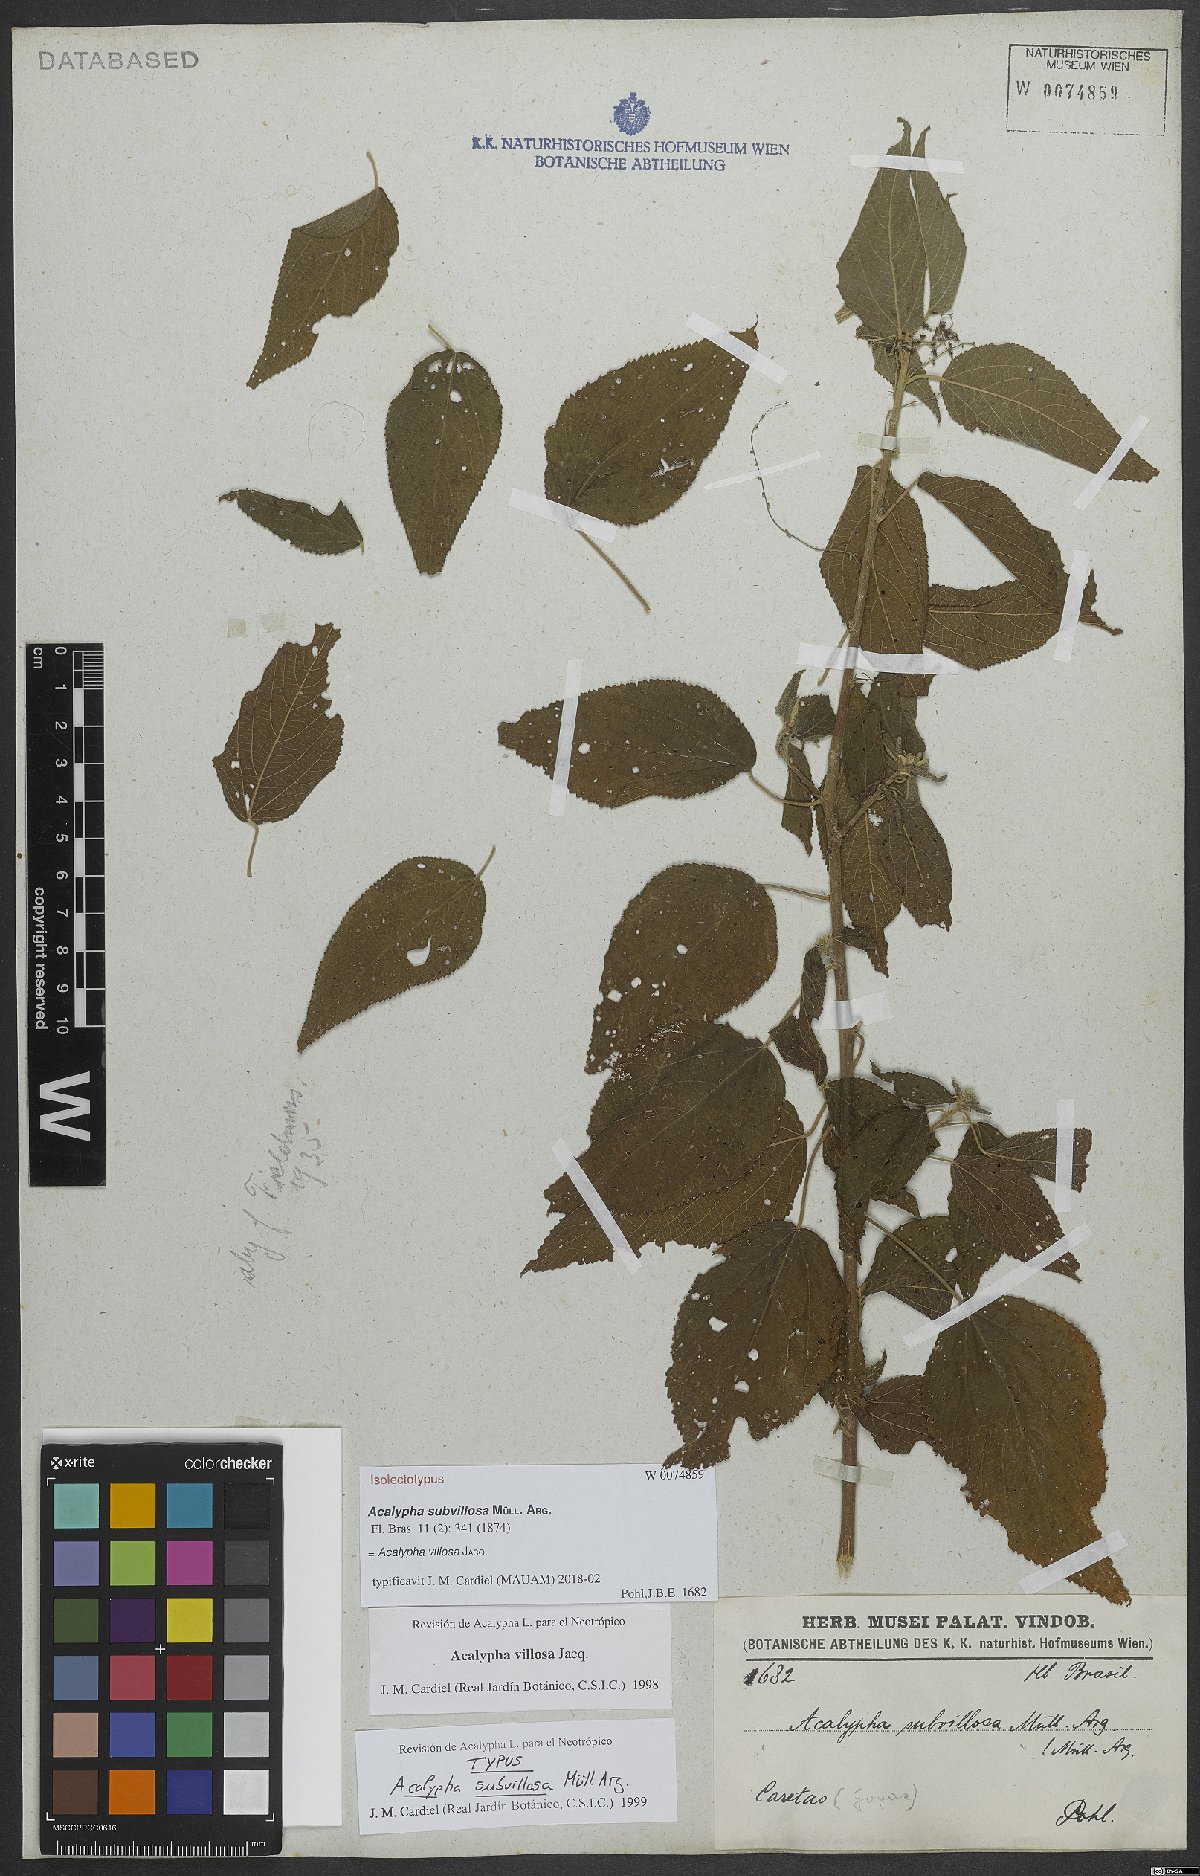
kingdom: Plantae
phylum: Tracheophyta
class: Magnoliopsida
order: Malpighiales
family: Euphorbiaceae
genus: Acalypha
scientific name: Acalypha villosa
